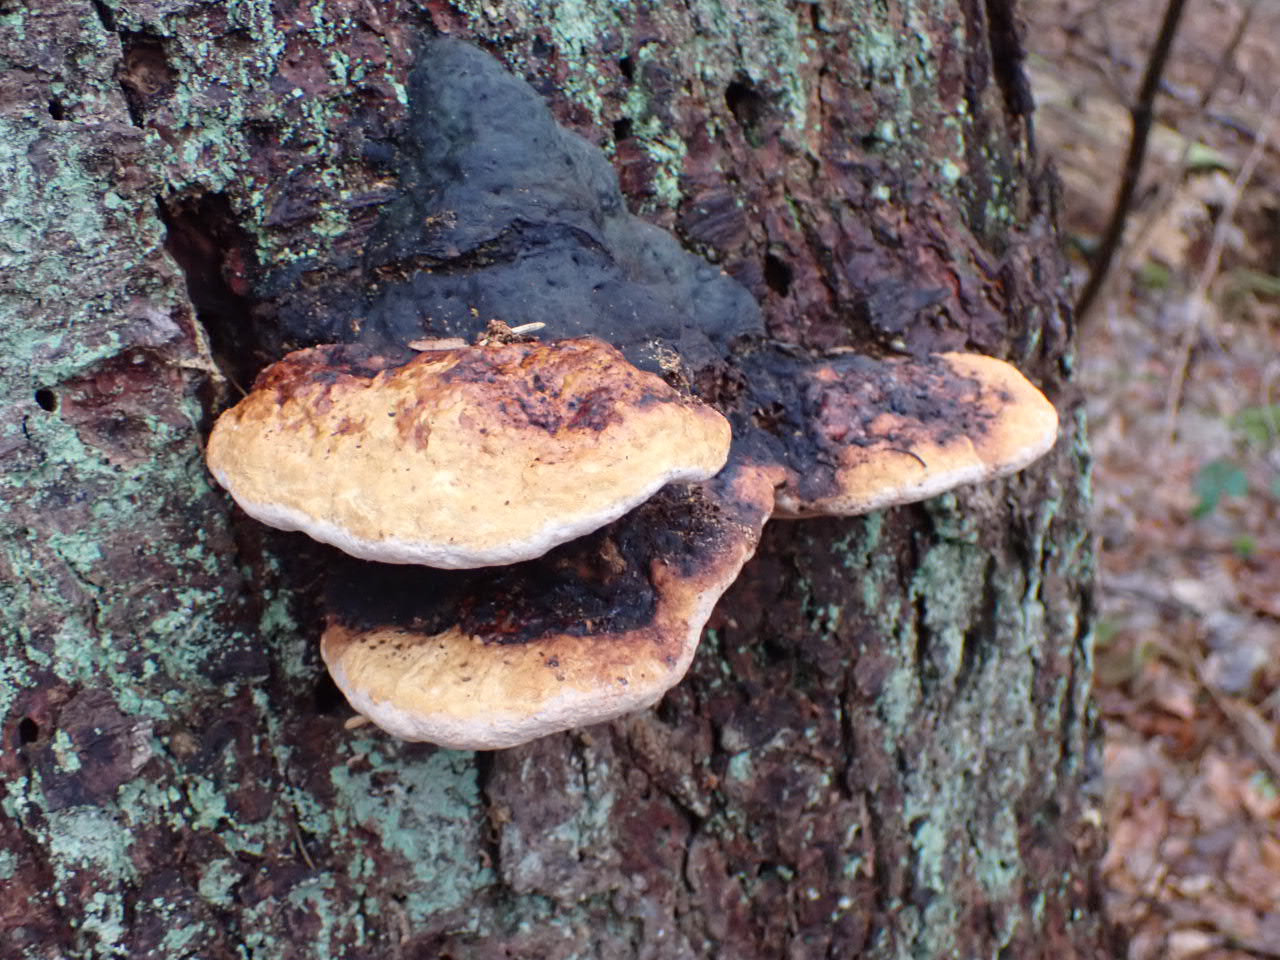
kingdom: Fungi
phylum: Basidiomycota
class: Agaricomycetes
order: Polyporales
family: Fomitopsidaceae
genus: Fomitopsis
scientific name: Fomitopsis pinicola
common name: randbæltet hovporesvamp
